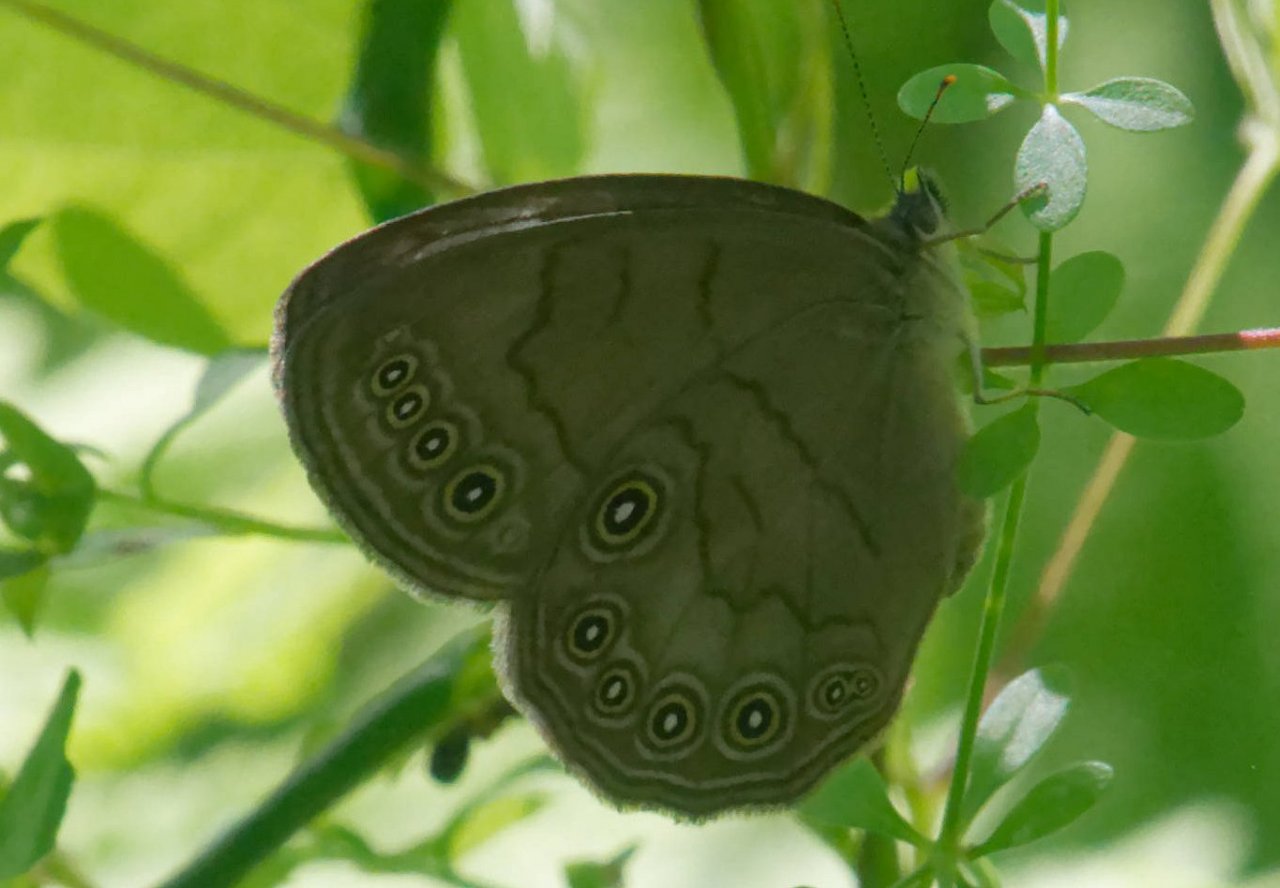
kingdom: Animalia
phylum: Arthropoda
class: Insecta
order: Lepidoptera
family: Nymphalidae
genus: Lethe
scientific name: Lethe eurydice
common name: Appalachian Eyed Brown
